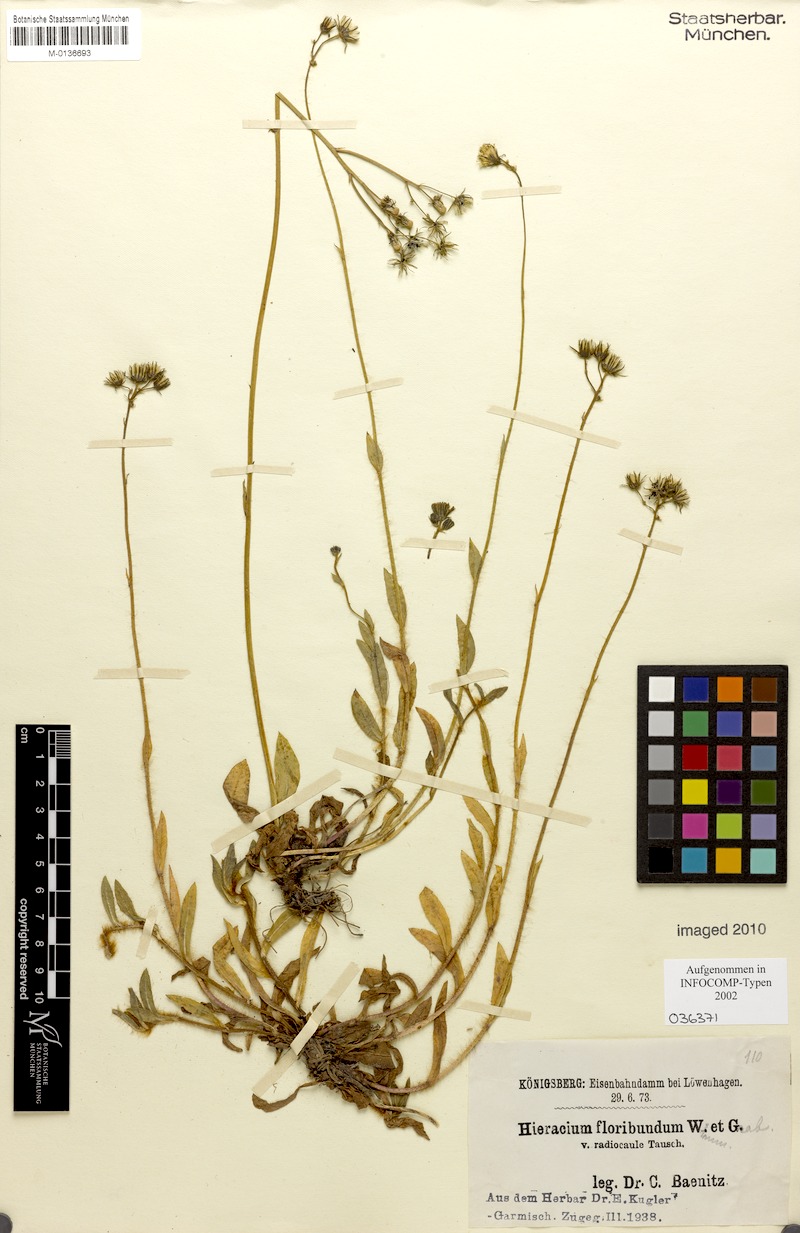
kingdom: Plantae
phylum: Tracheophyta
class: Magnoliopsida
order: Asterales
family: Asteraceae
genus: Pilosella
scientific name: Pilosella floribunda
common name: Glaucous hawkweed
